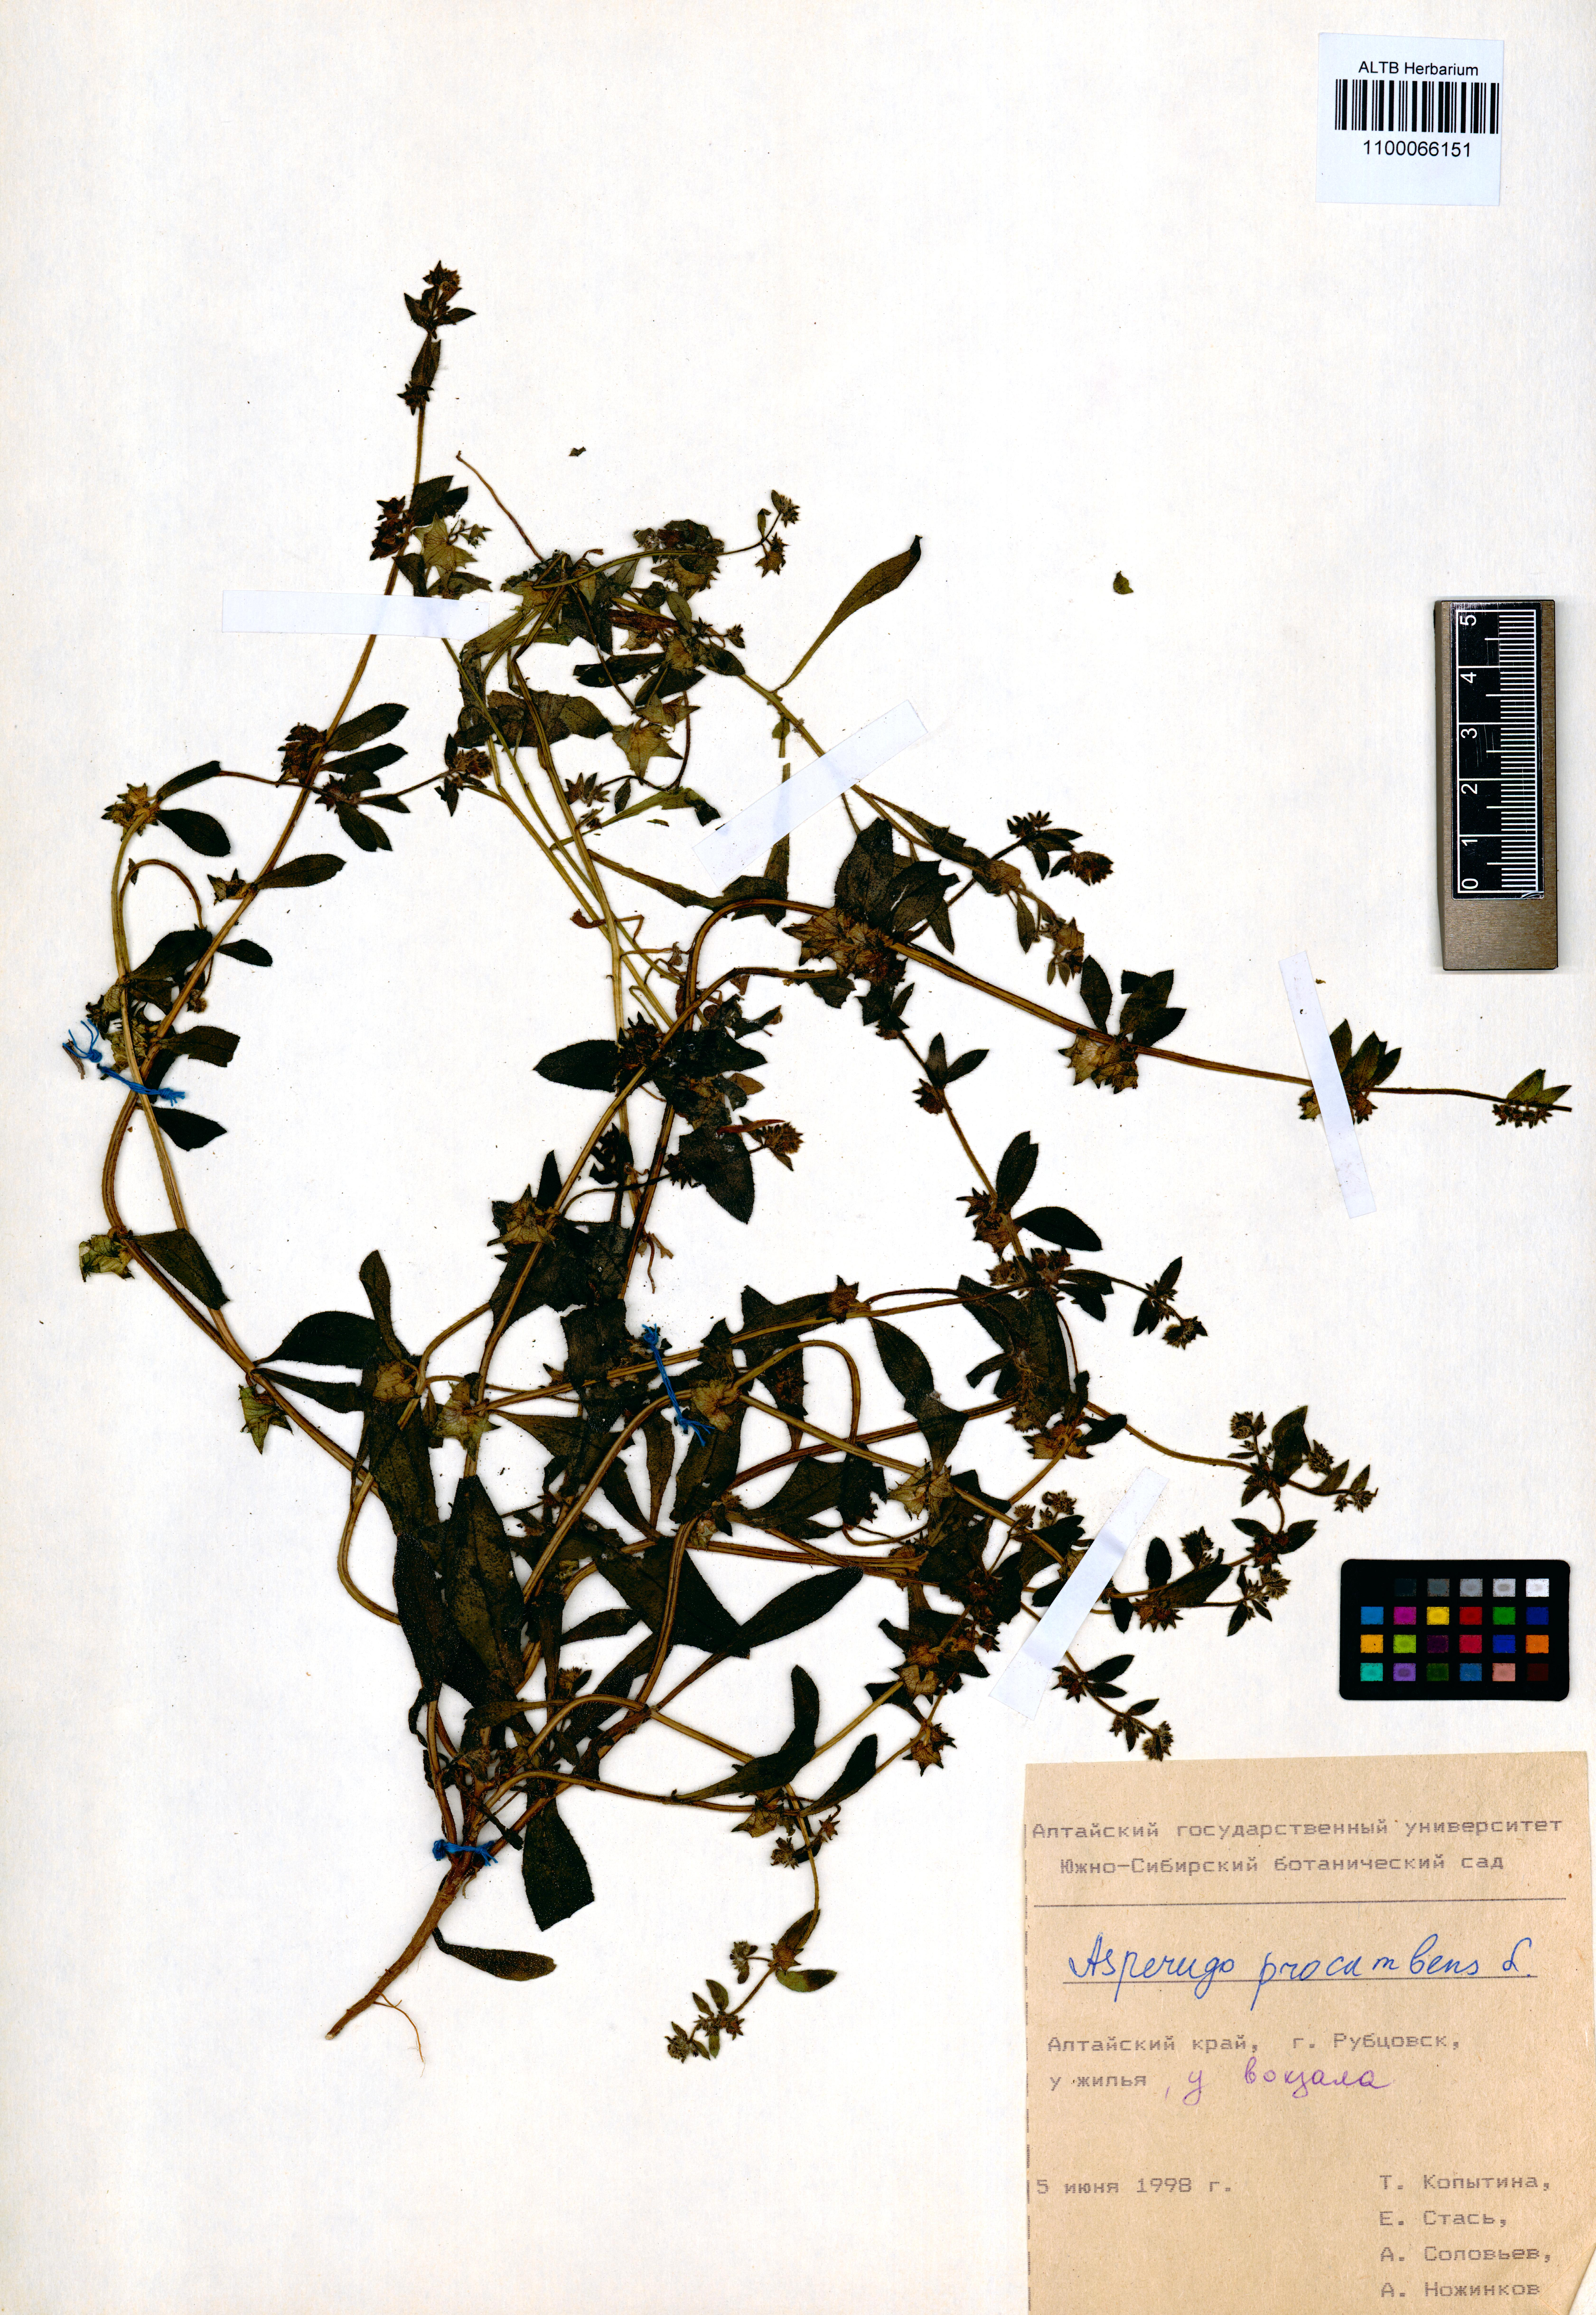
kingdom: Plantae
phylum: Tracheophyta
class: Magnoliopsida
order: Boraginales
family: Boraginaceae
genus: Asperugo
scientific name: Asperugo procumbens
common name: Madwort
